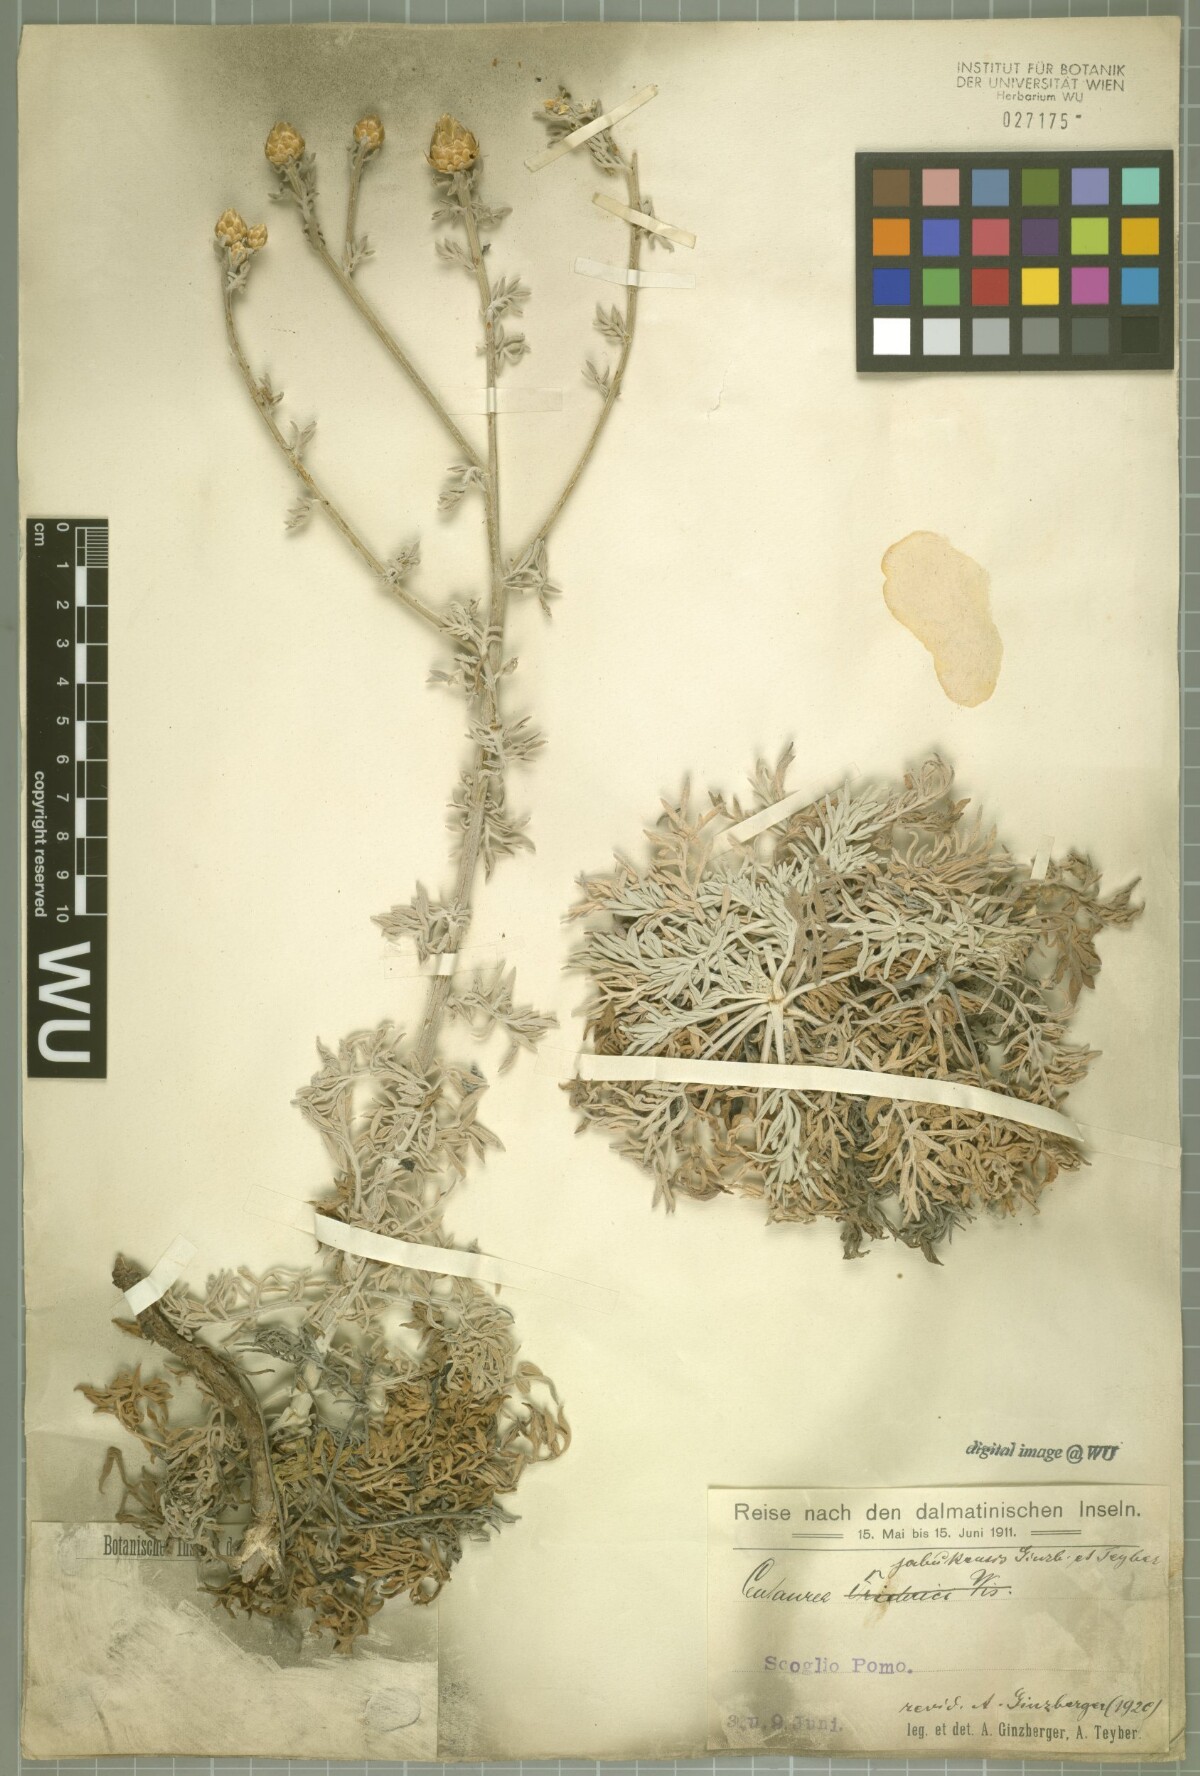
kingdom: Plantae
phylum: Tracheophyta
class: Magnoliopsida
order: Asterales
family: Asteraceae
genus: Centaurea
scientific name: Centaurea friderici
